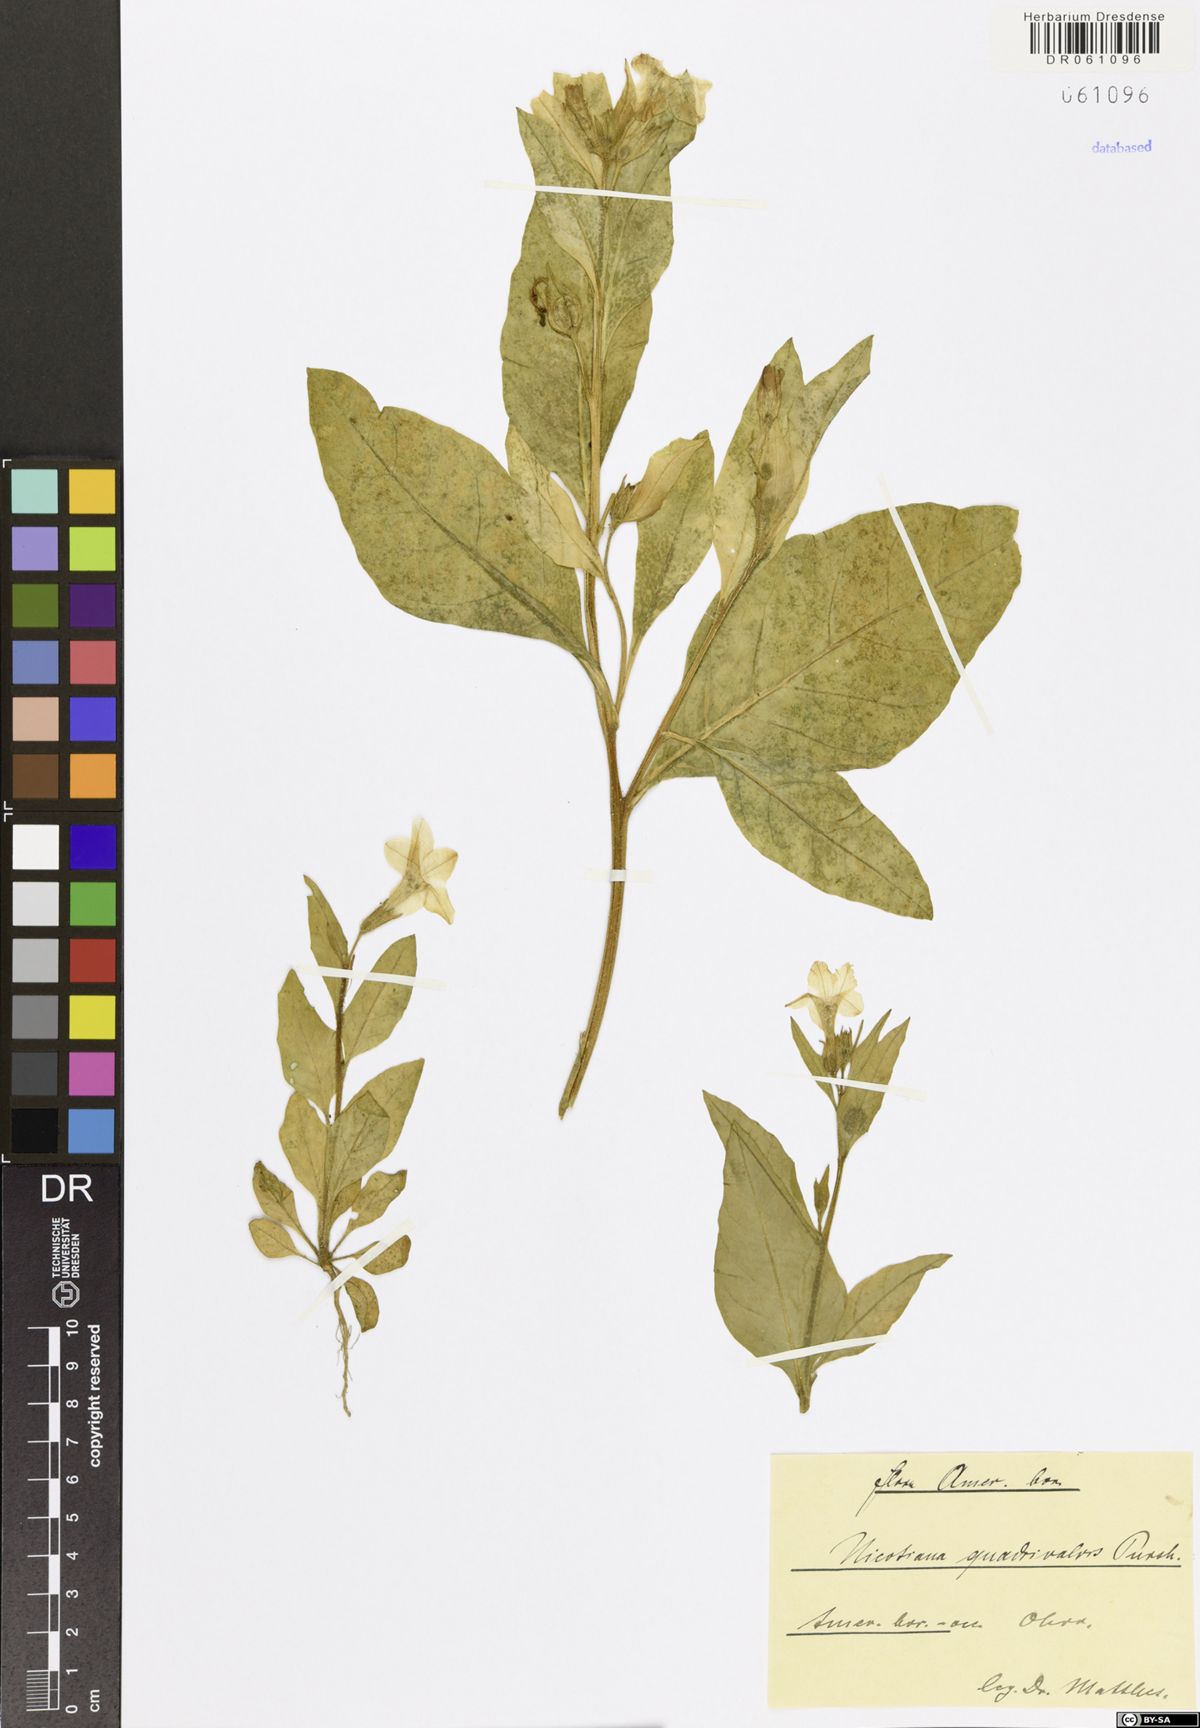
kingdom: Plantae
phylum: Tracheophyta
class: Magnoliopsida
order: Solanales
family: Solanaceae
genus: Nicotiana
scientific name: Nicotiana quadrivalvis
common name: Indian tobacco
